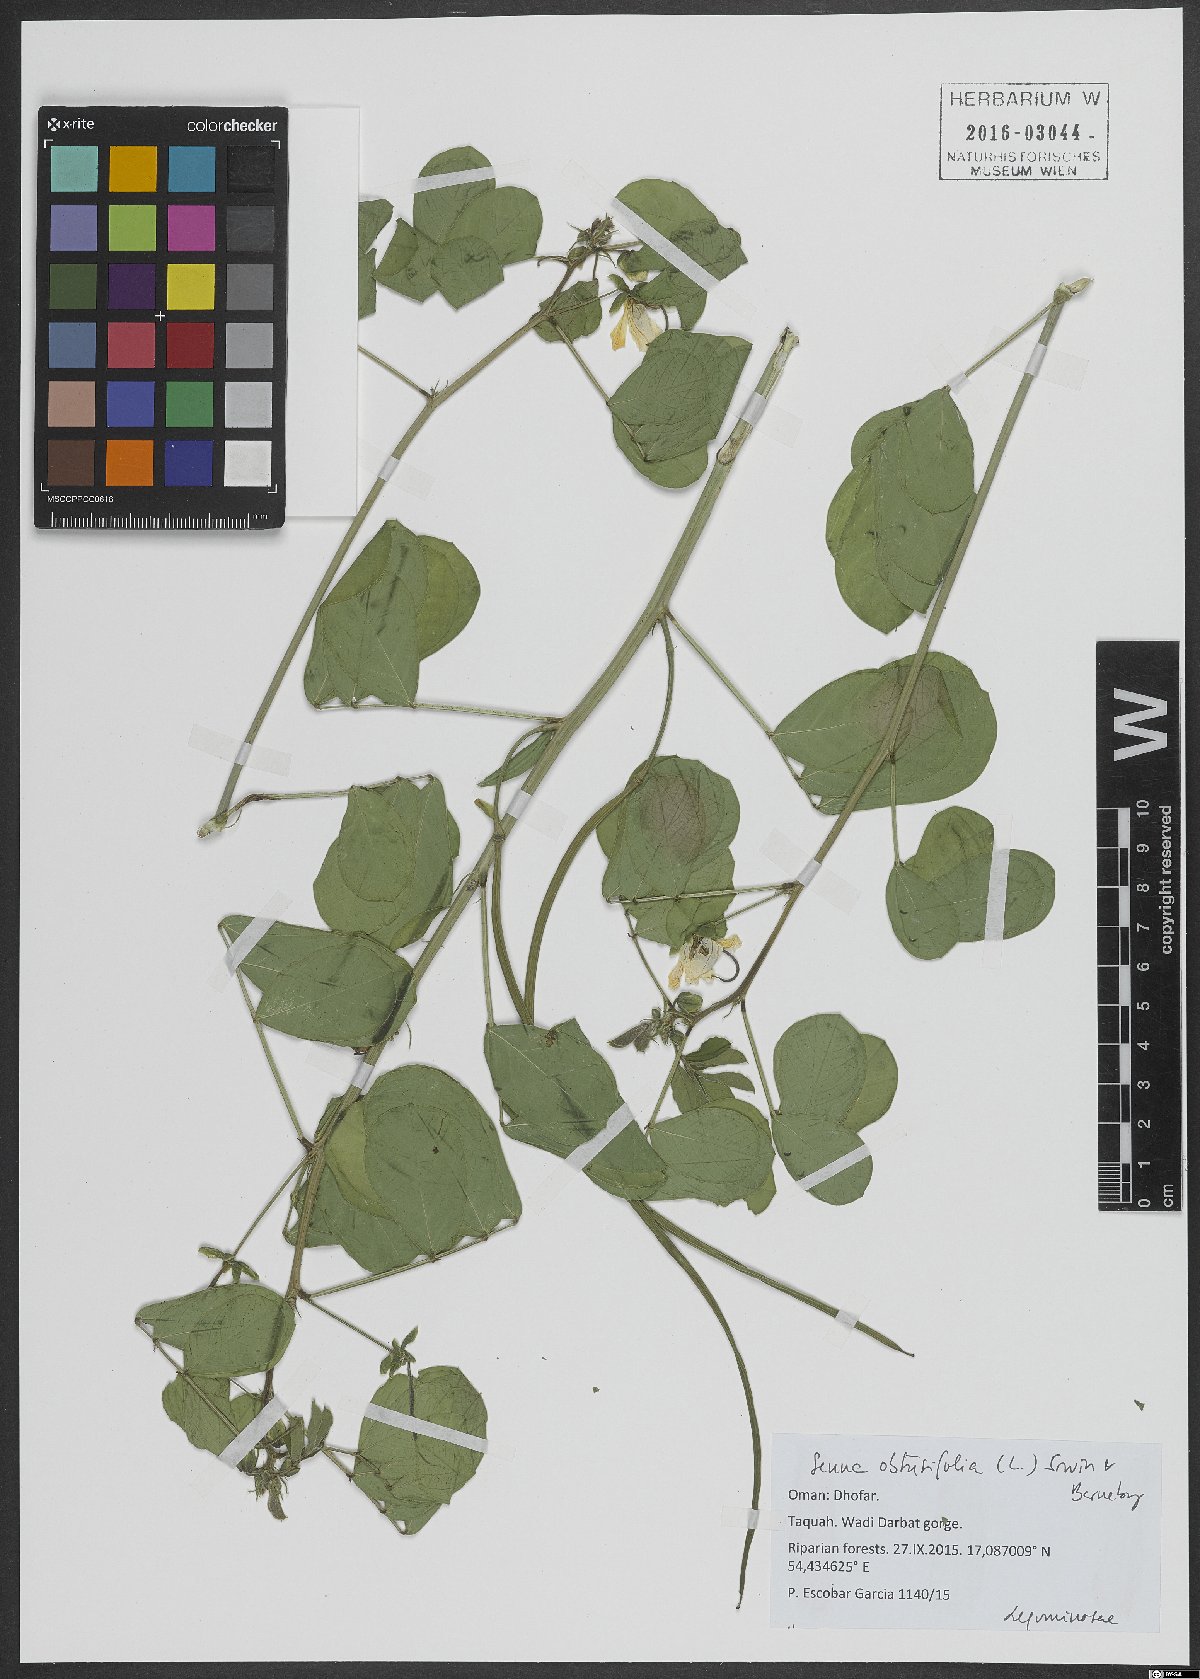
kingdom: Plantae
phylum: Tracheophyta
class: Magnoliopsida
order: Fabales
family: Fabaceae
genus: Senna
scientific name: Senna obtusifolia
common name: Java-bean
